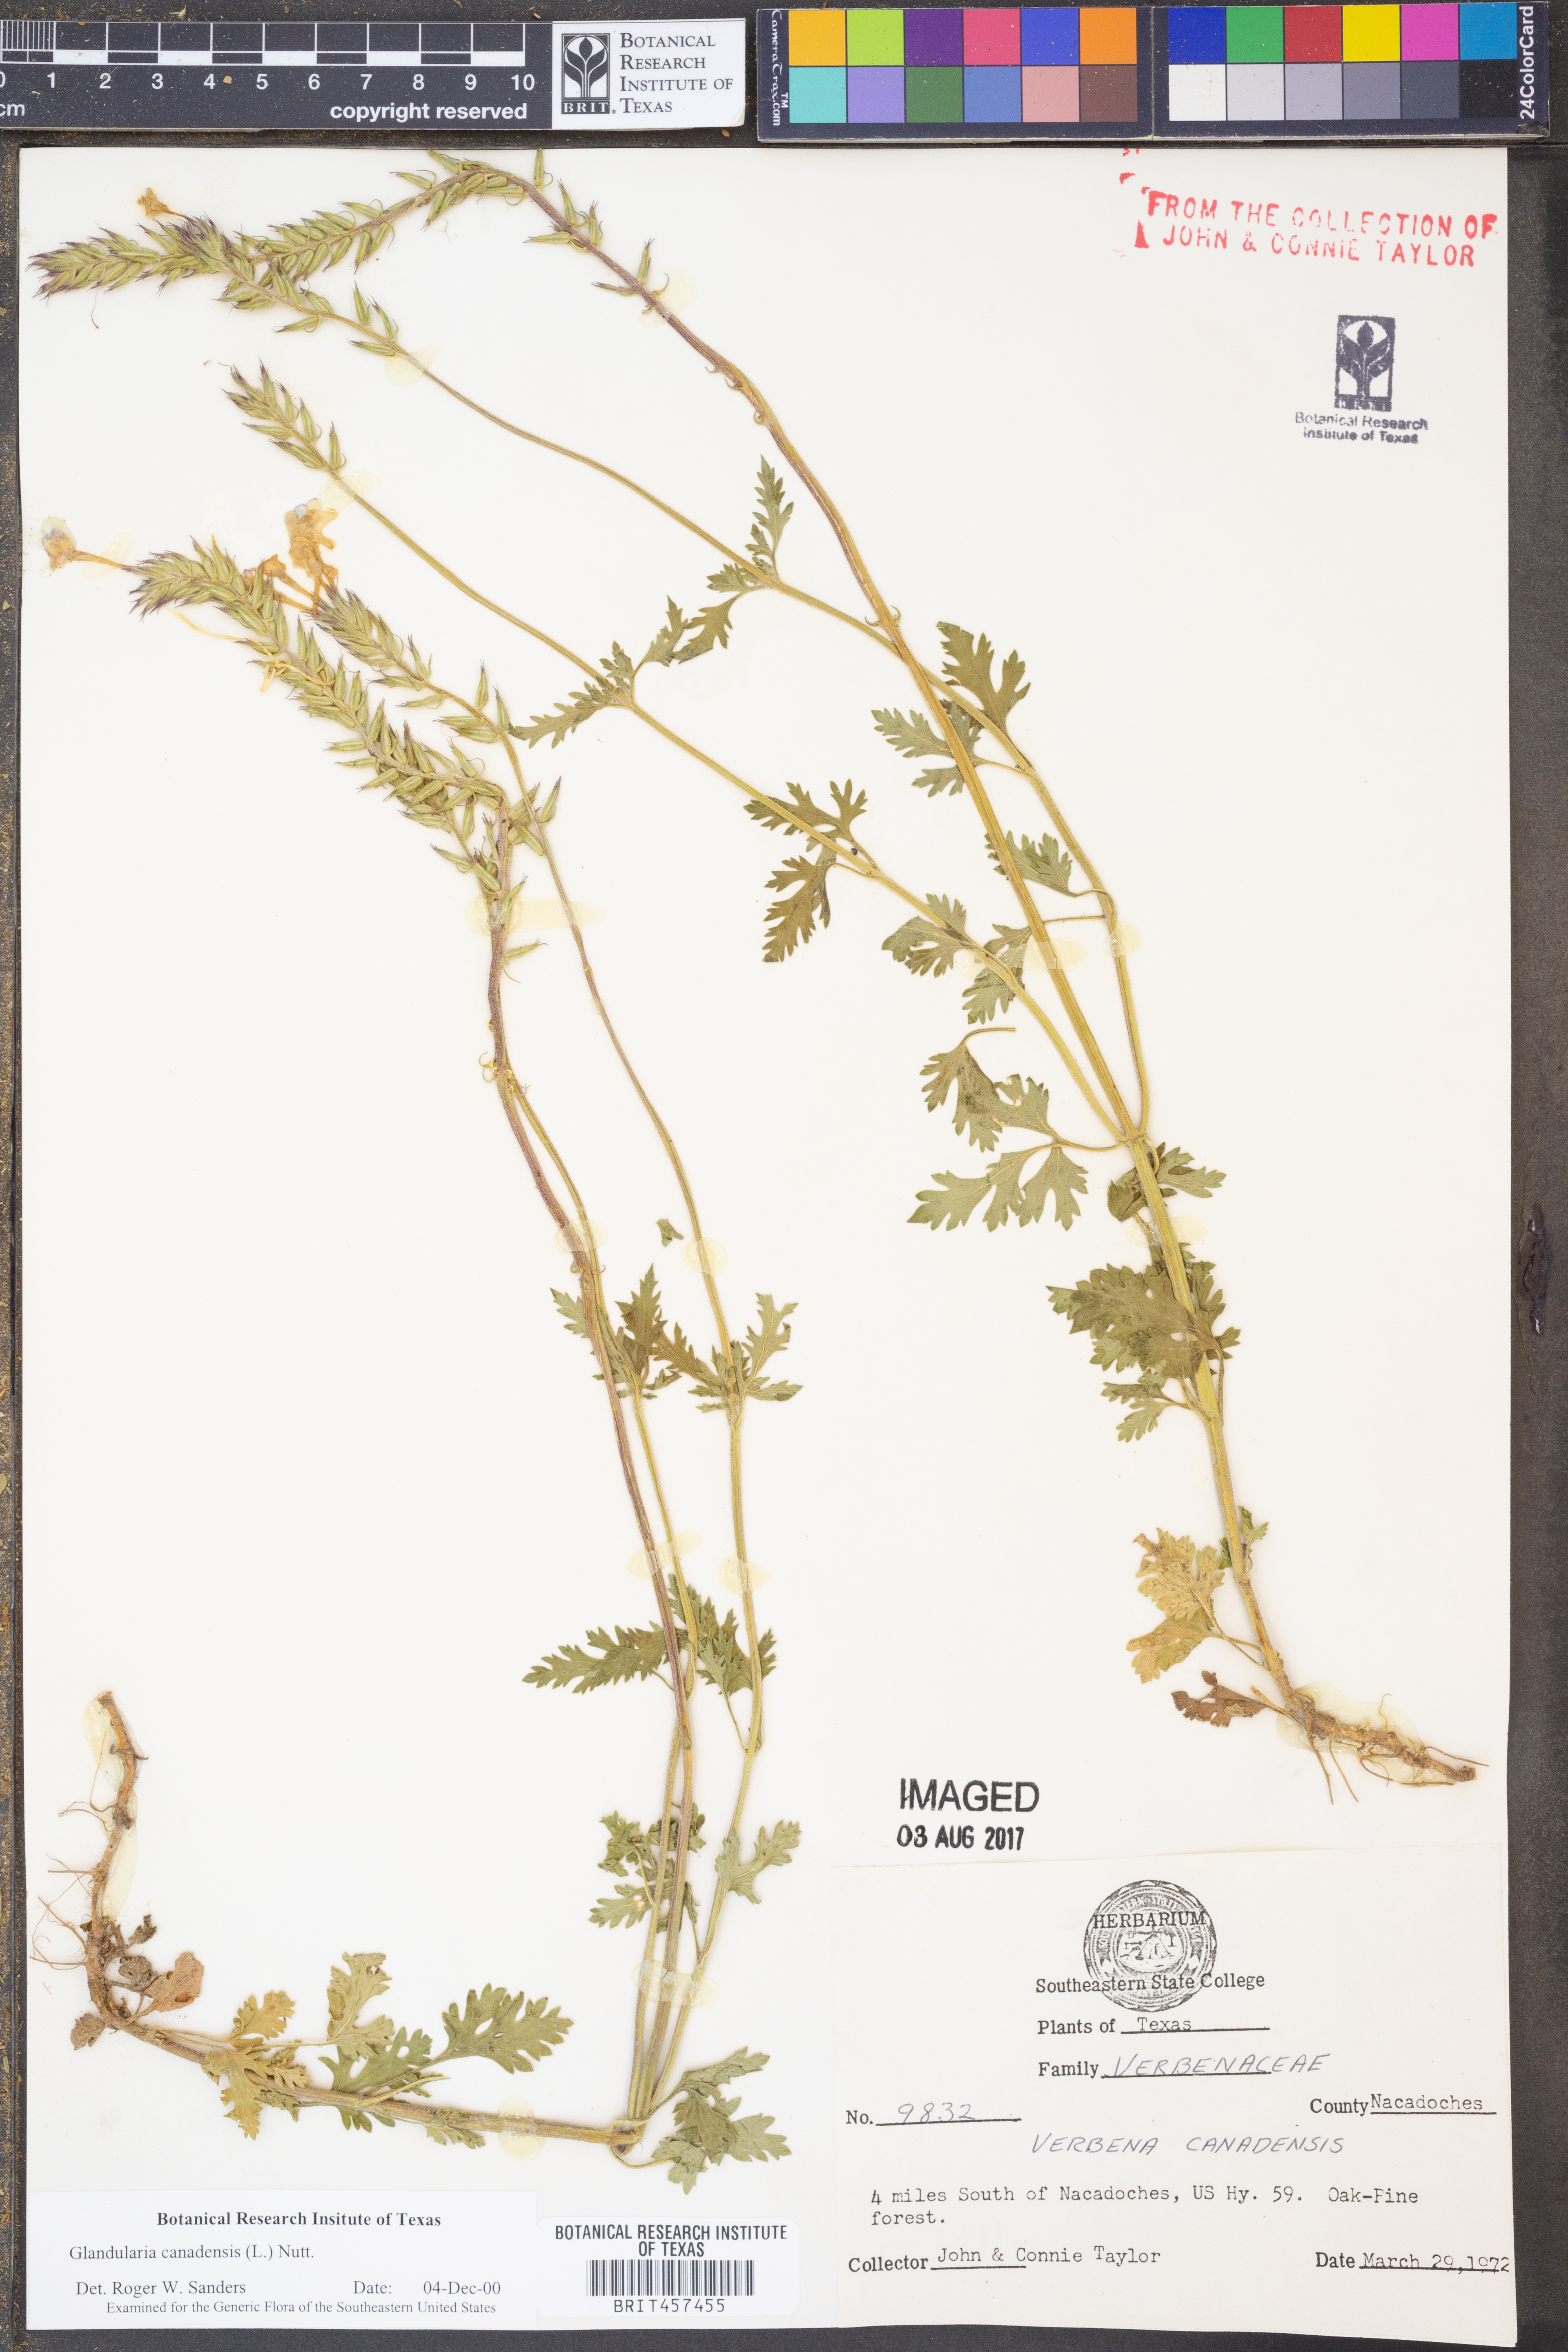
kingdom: Plantae
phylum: Tracheophyta
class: Magnoliopsida
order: Lamiales
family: Verbenaceae
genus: Verbena
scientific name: Verbena canadensis
